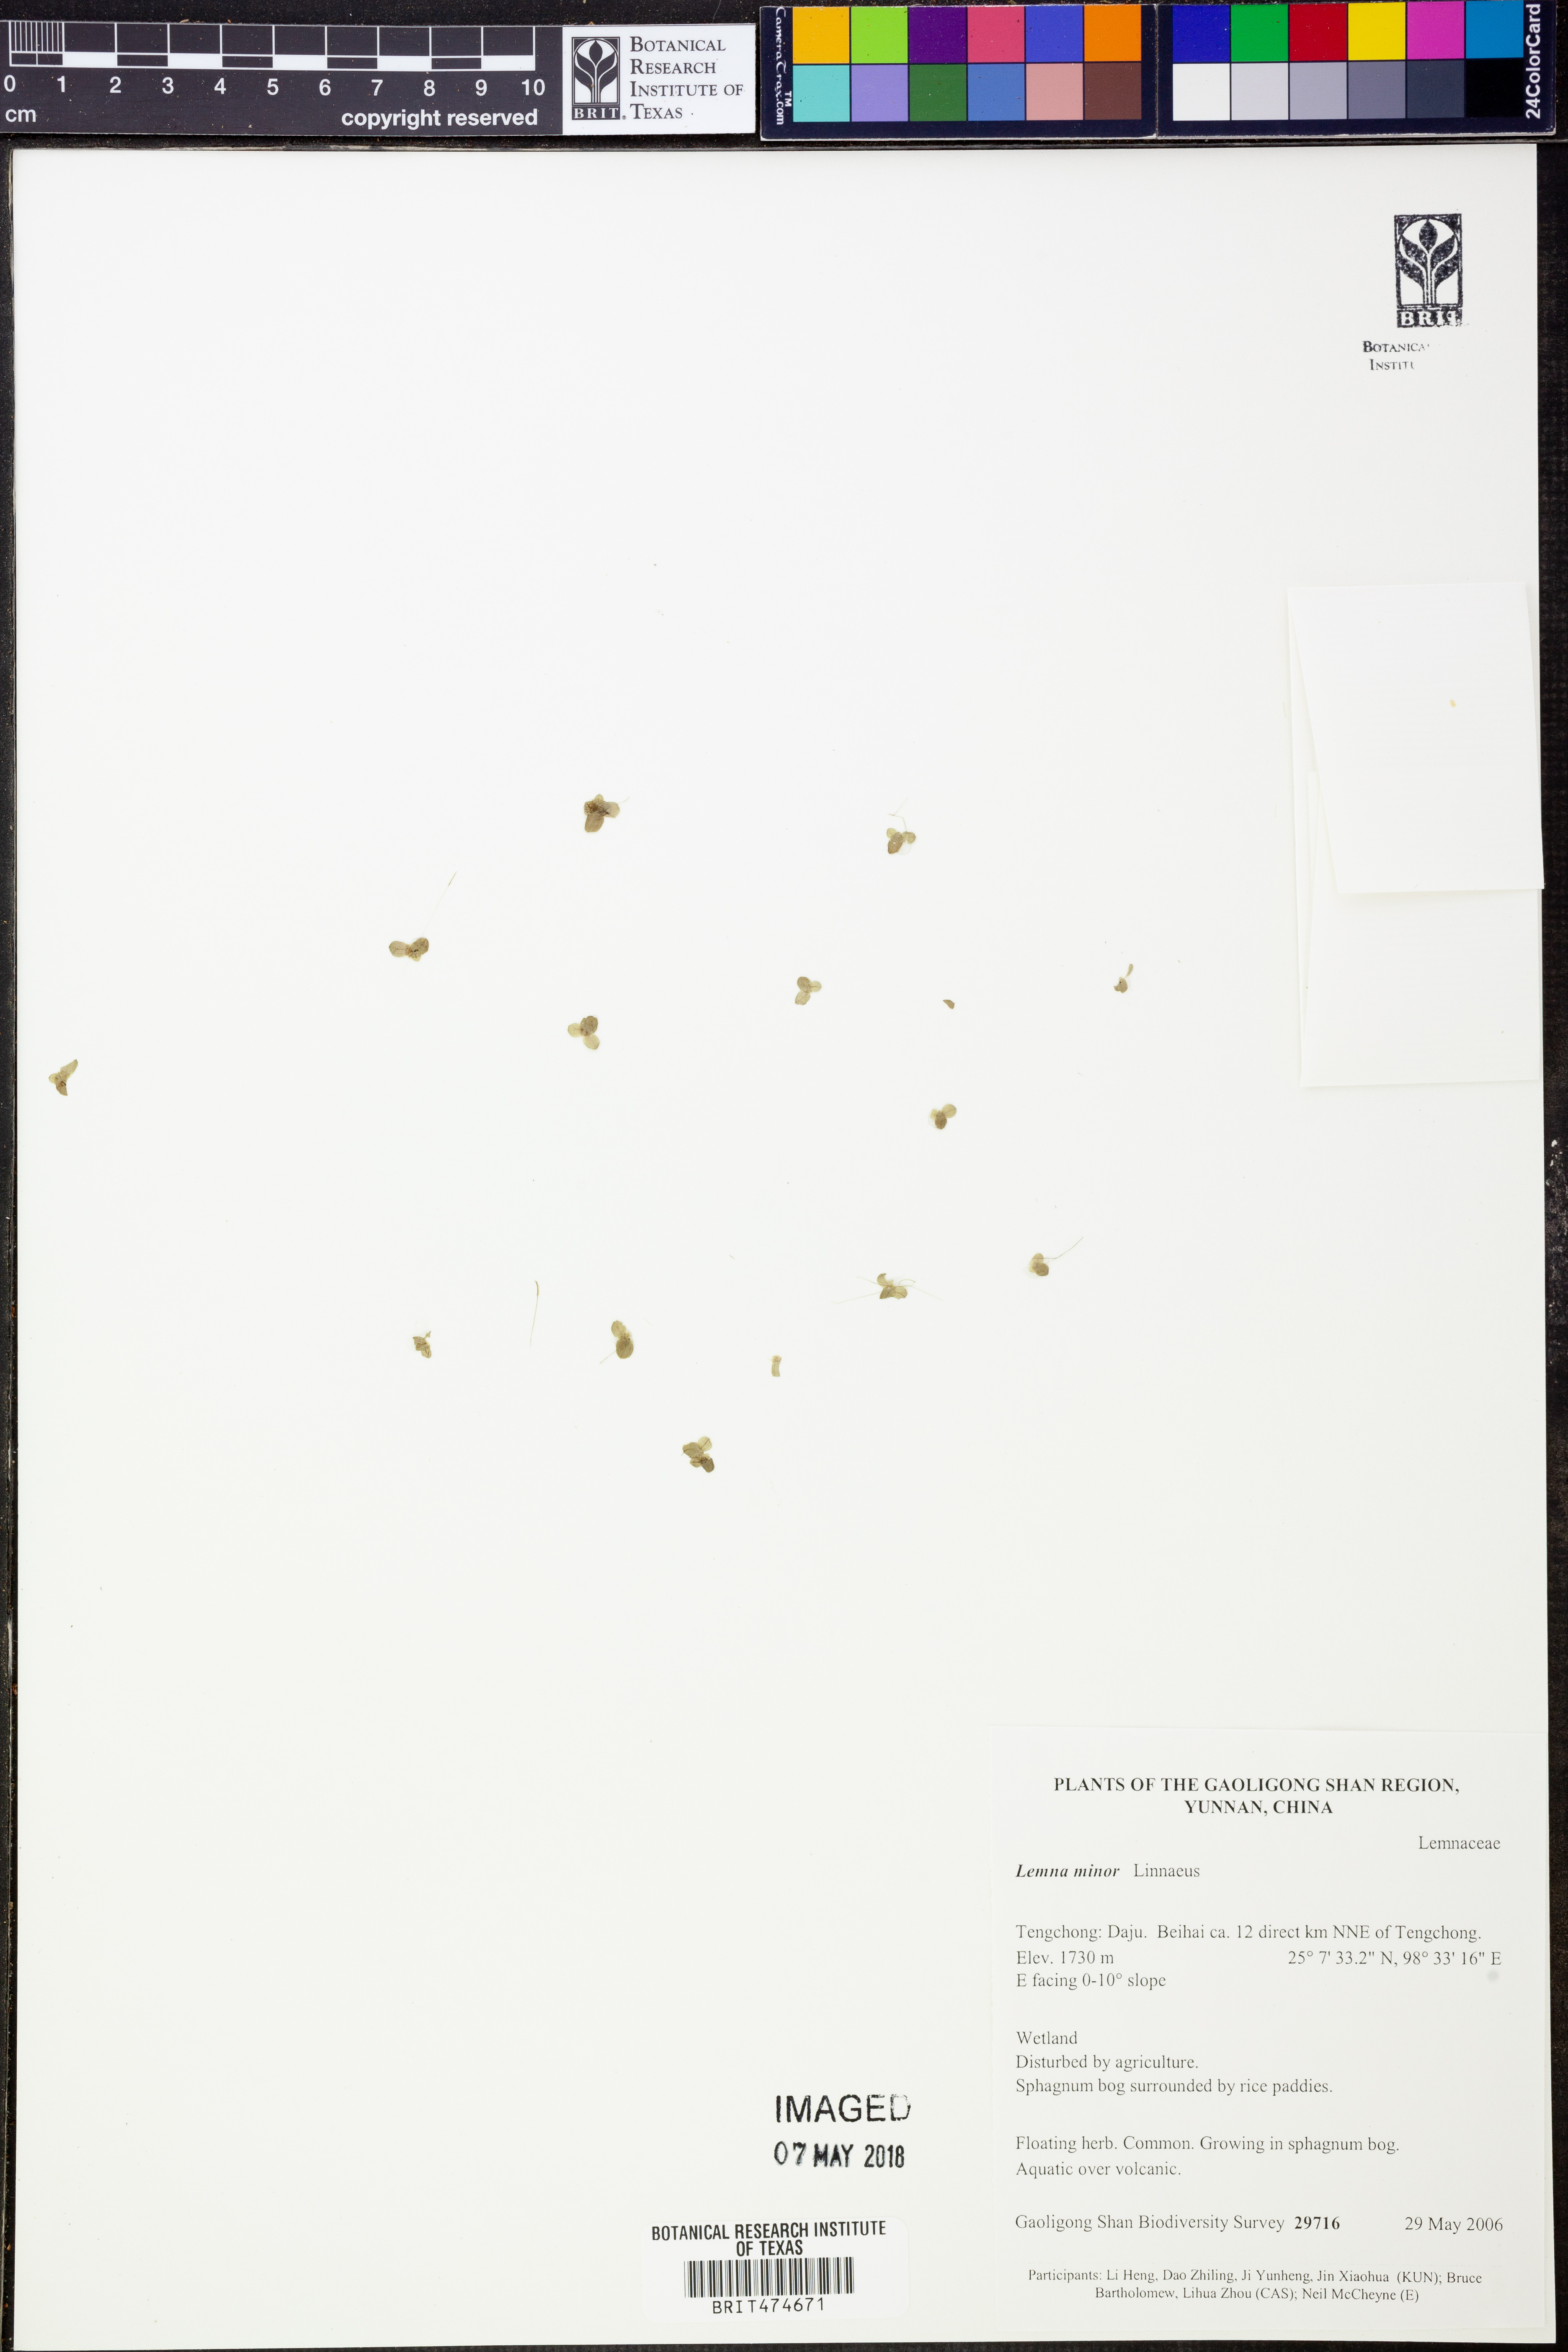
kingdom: Plantae
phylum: Tracheophyta
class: Liliopsida
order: Alismatales
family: Araceae
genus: Lemna
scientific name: Lemna minor
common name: Common duckweed
